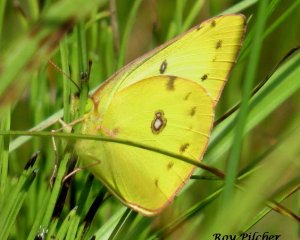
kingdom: Animalia
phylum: Arthropoda
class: Insecta
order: Lepidoptera
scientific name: Lepidoptera
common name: Butterflies
